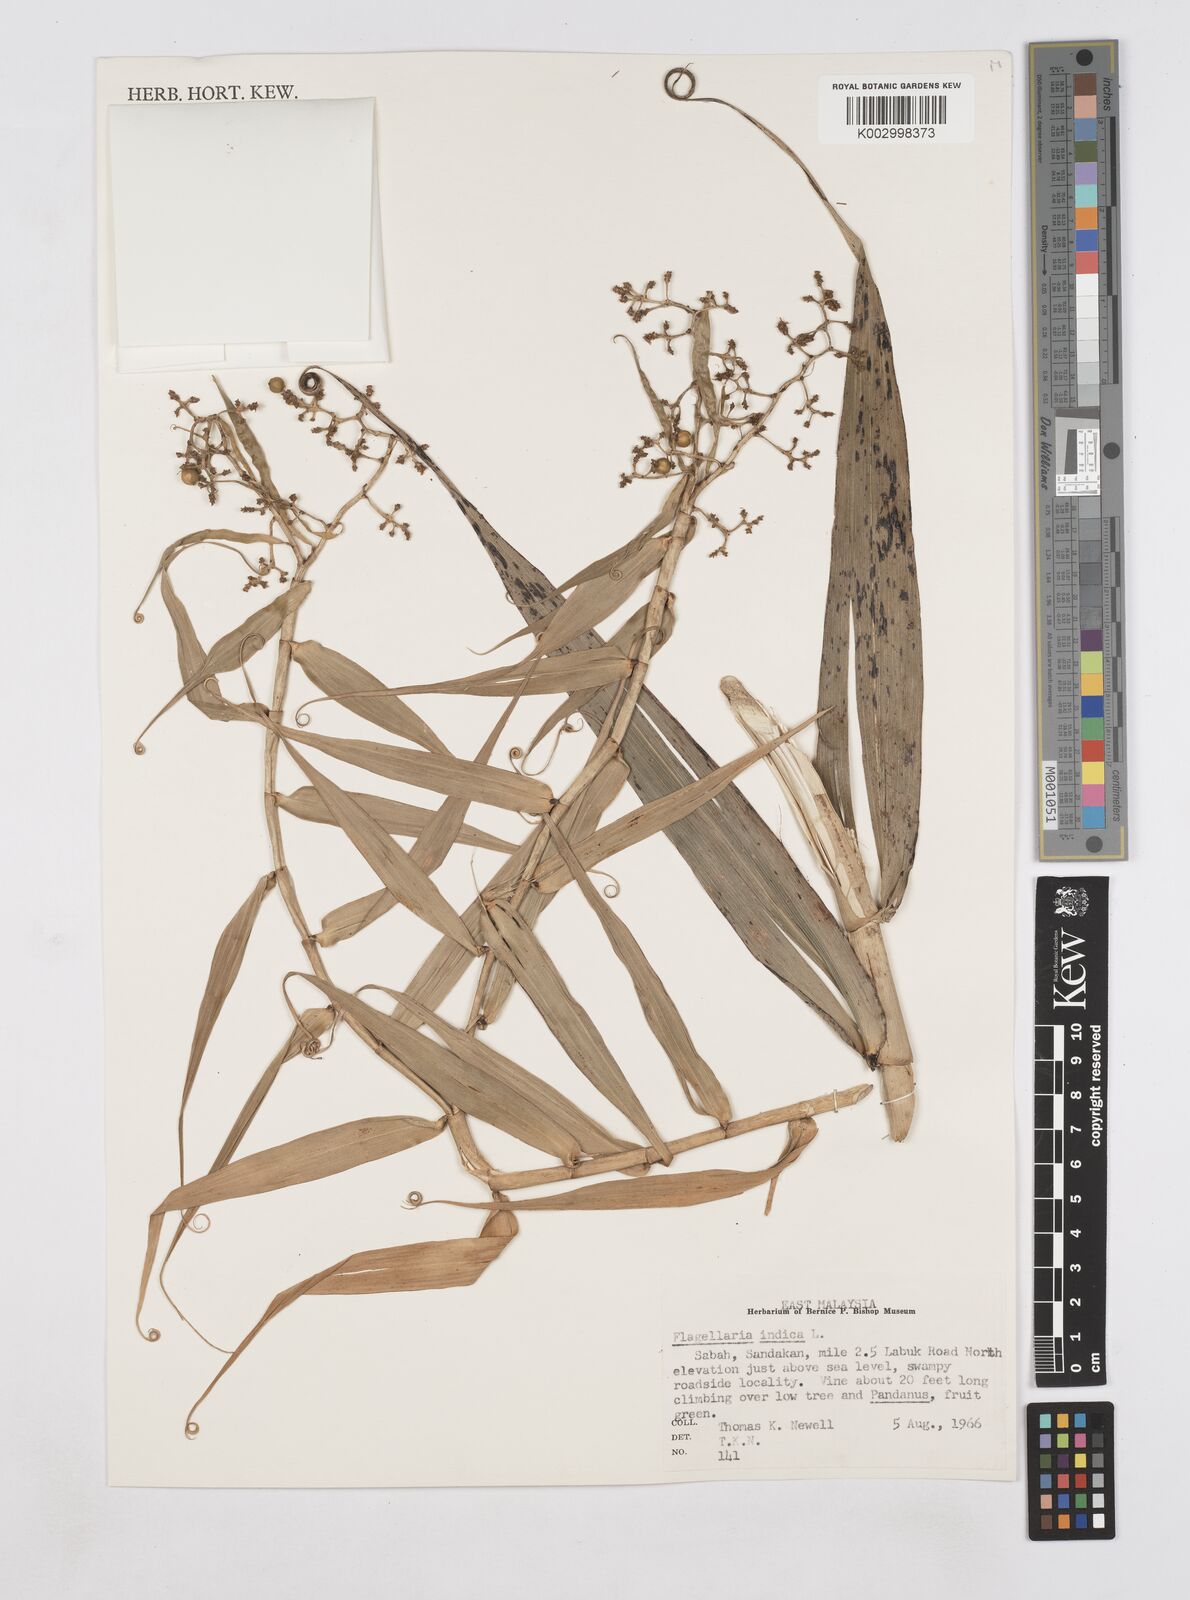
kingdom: Plantae
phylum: Tracheophyta
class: Liliopsida
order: Poales
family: Flagellariaceae
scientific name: Flagellariaceae
